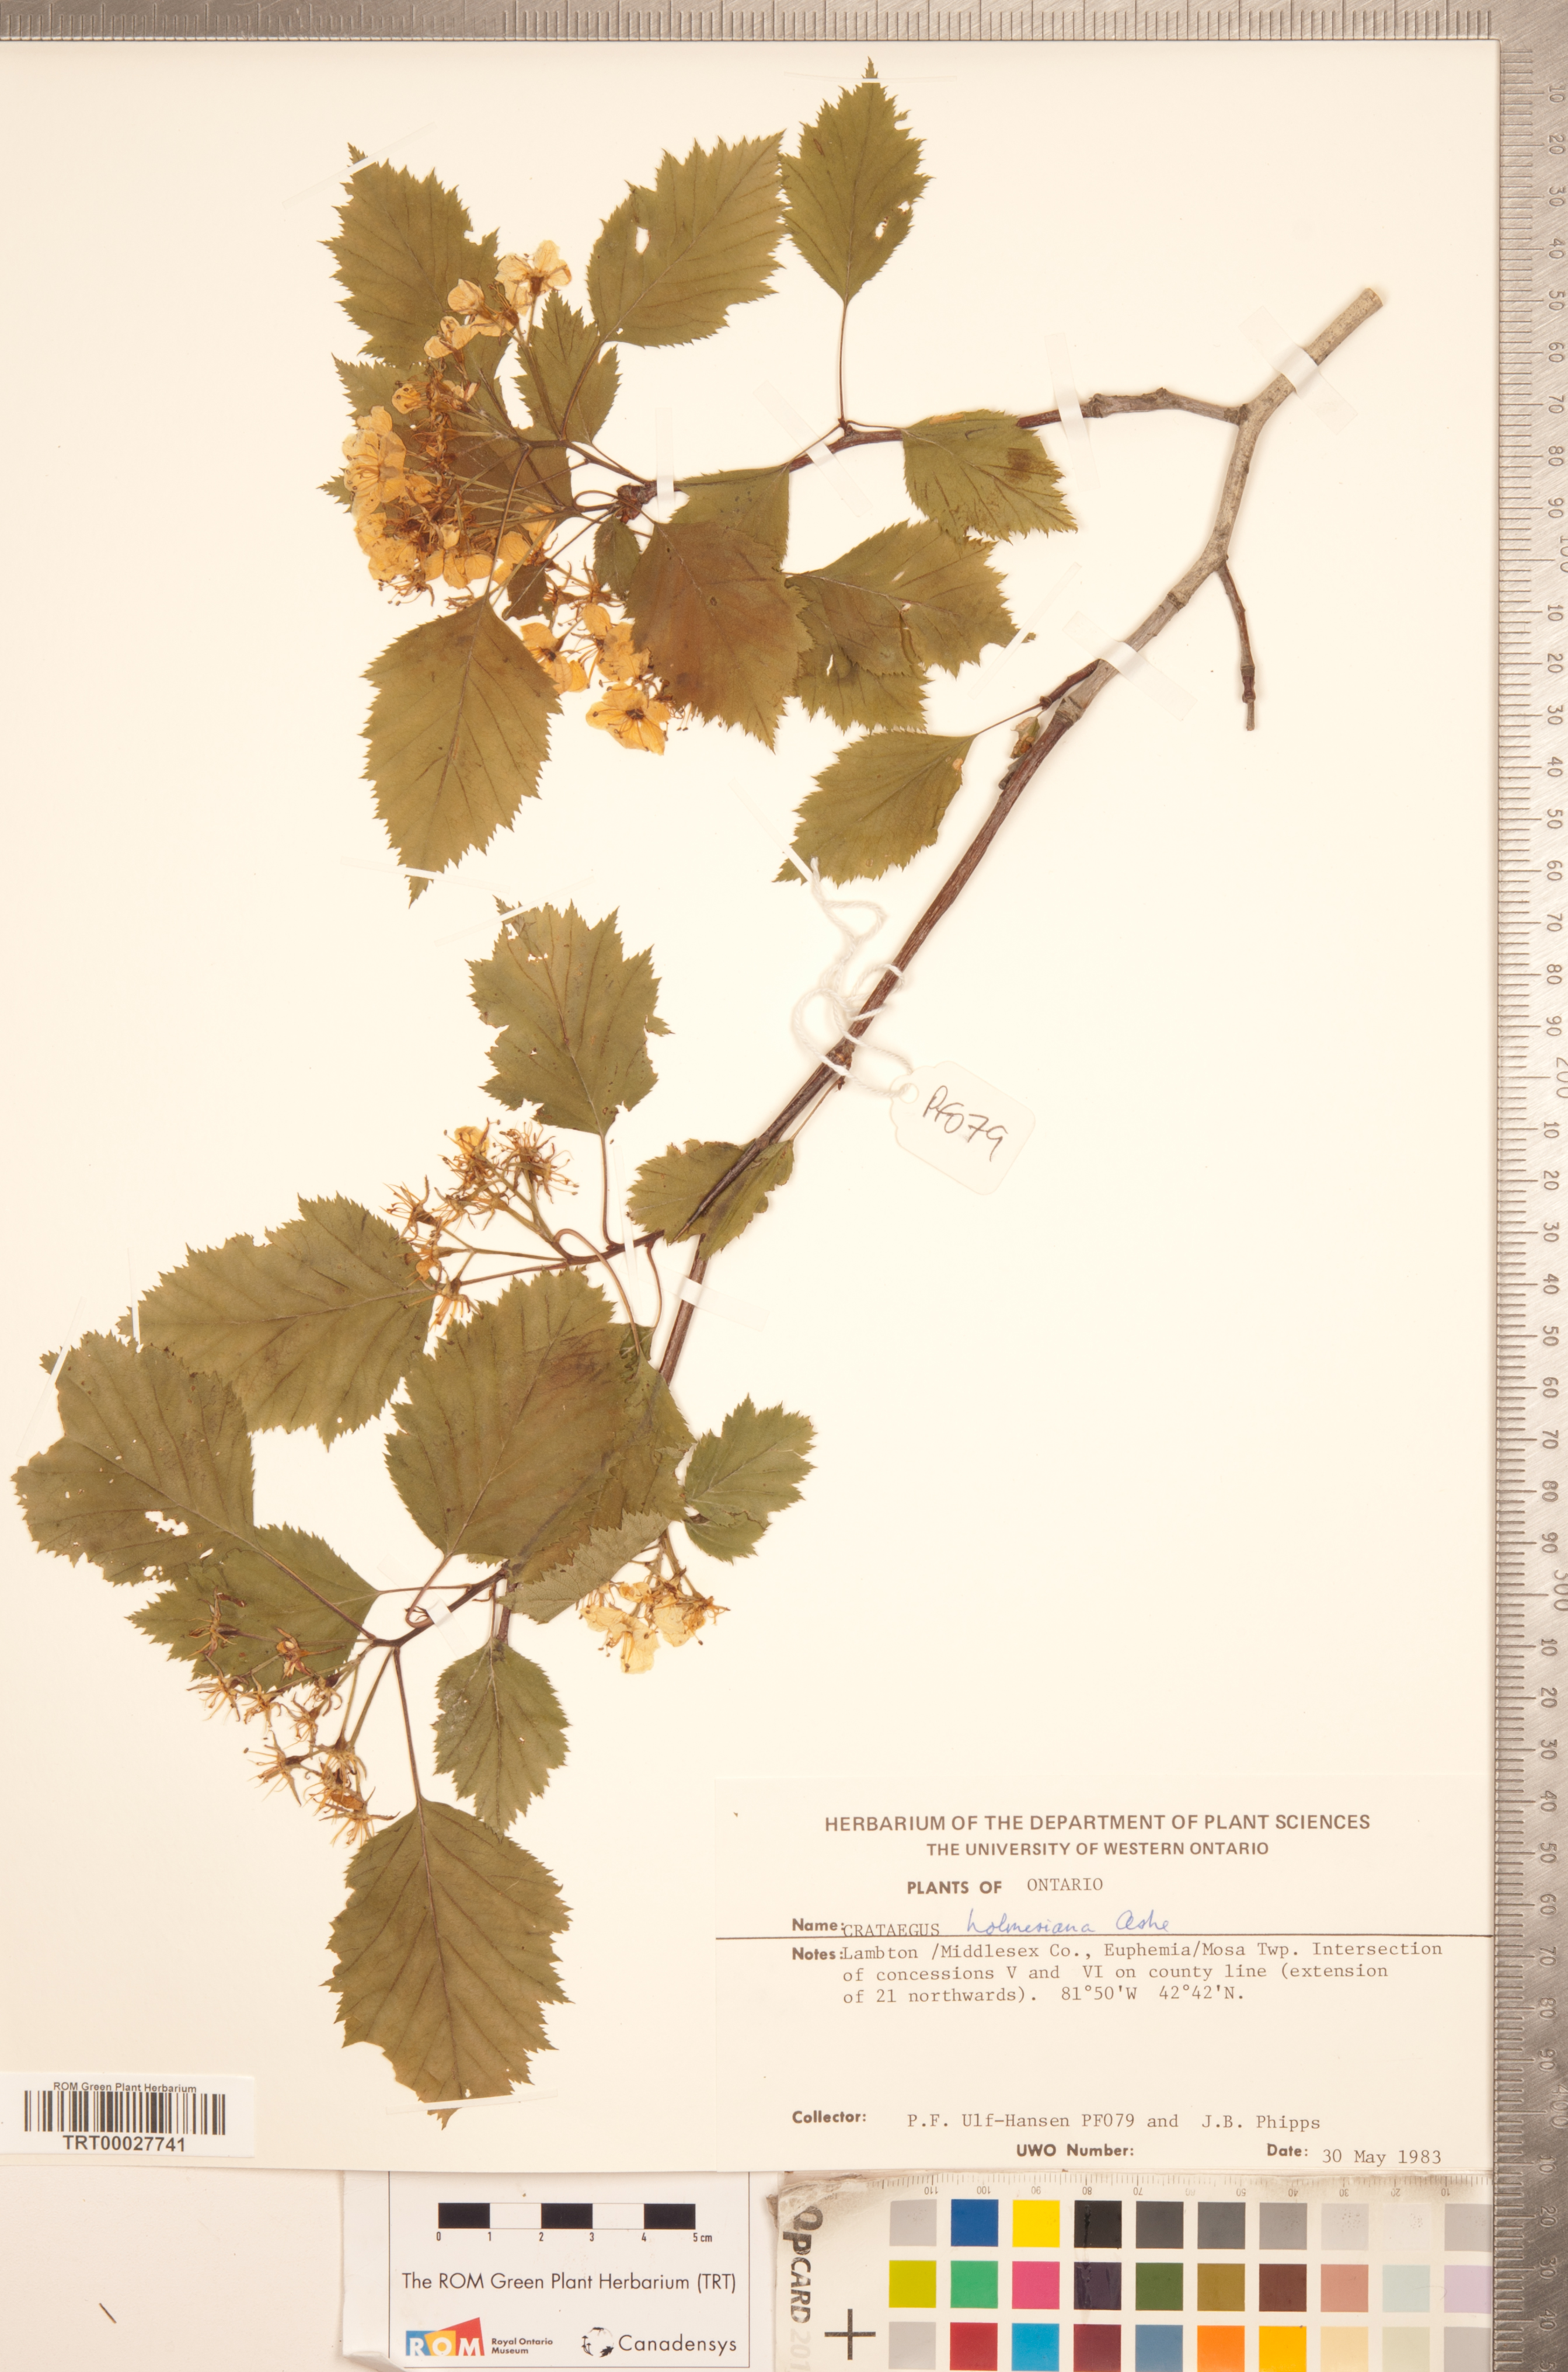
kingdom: Plantae
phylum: Tracheophyta
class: Magnoliopsida
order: Rosales
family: Rosaceae
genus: Crataegus
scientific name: Crataegus holmesiana
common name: Holmes' hawthorn
